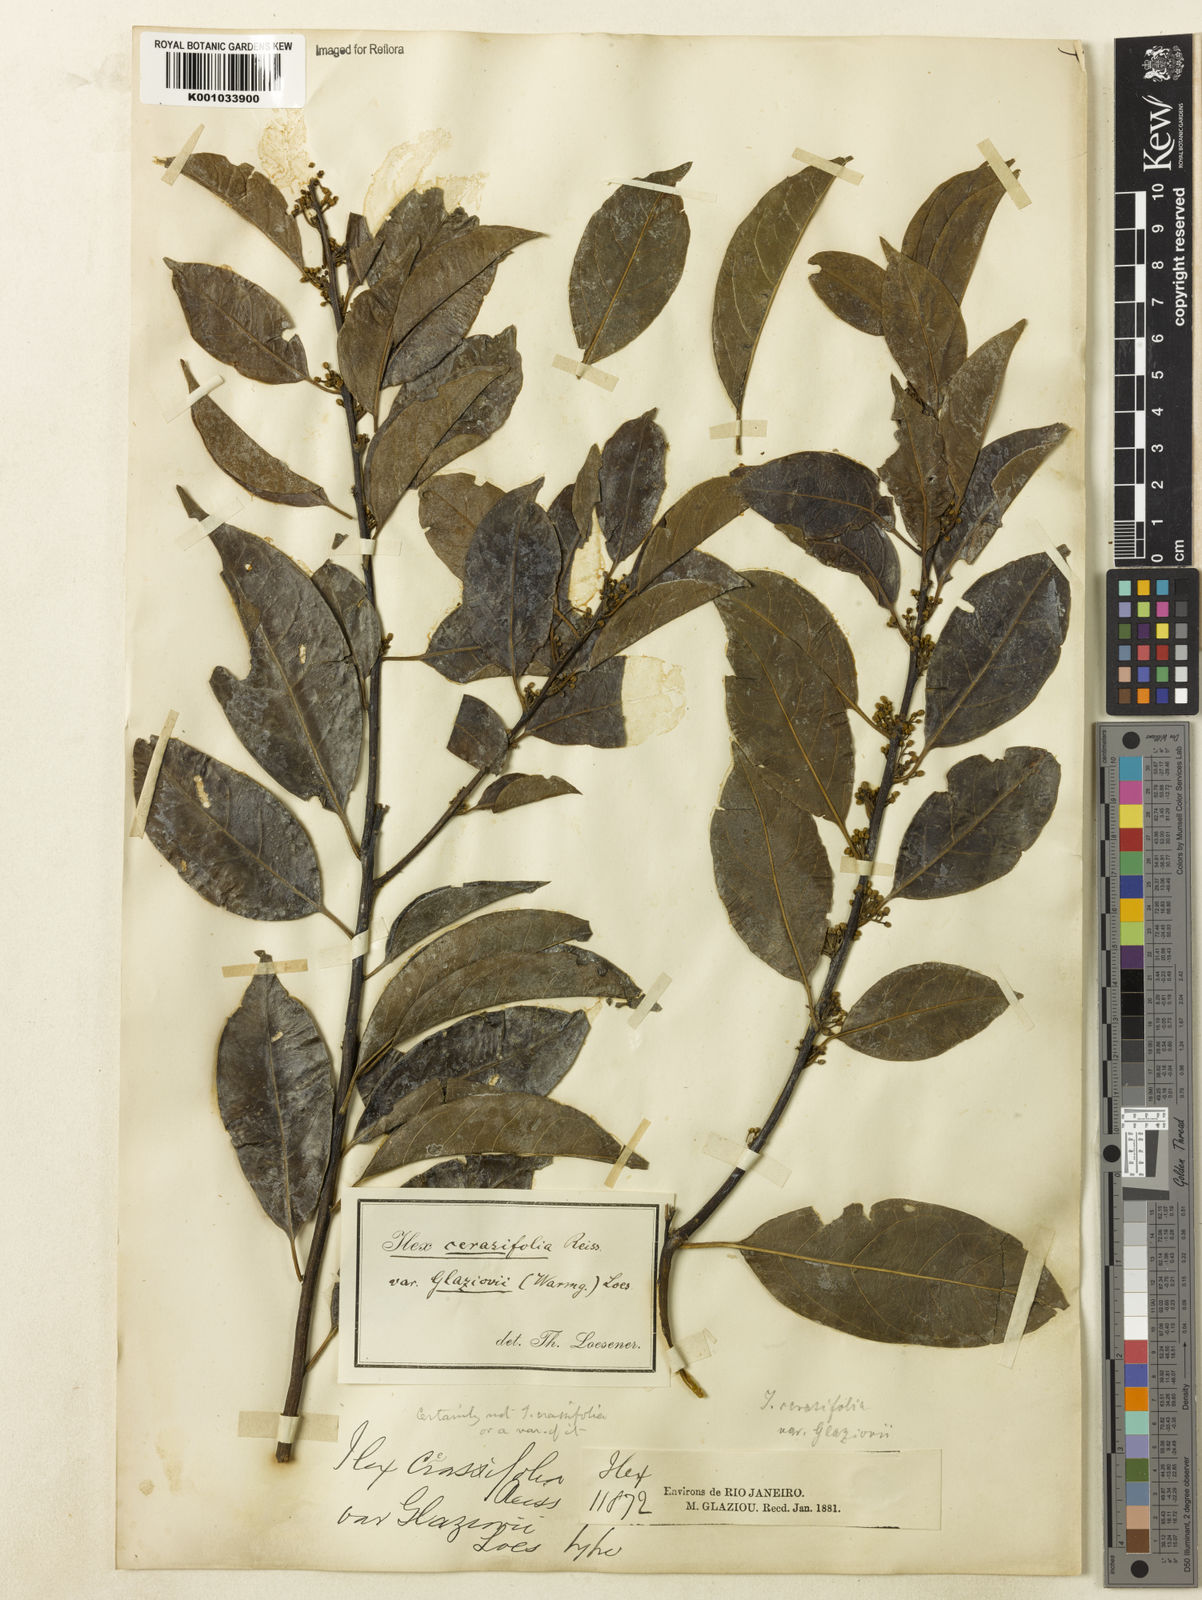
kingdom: Plantae
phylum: Tracheophyta
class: Magnoliopsida
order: Aquifoliales
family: Aquifoliaceae
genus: Ilex
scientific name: Ilex cerasifolia
